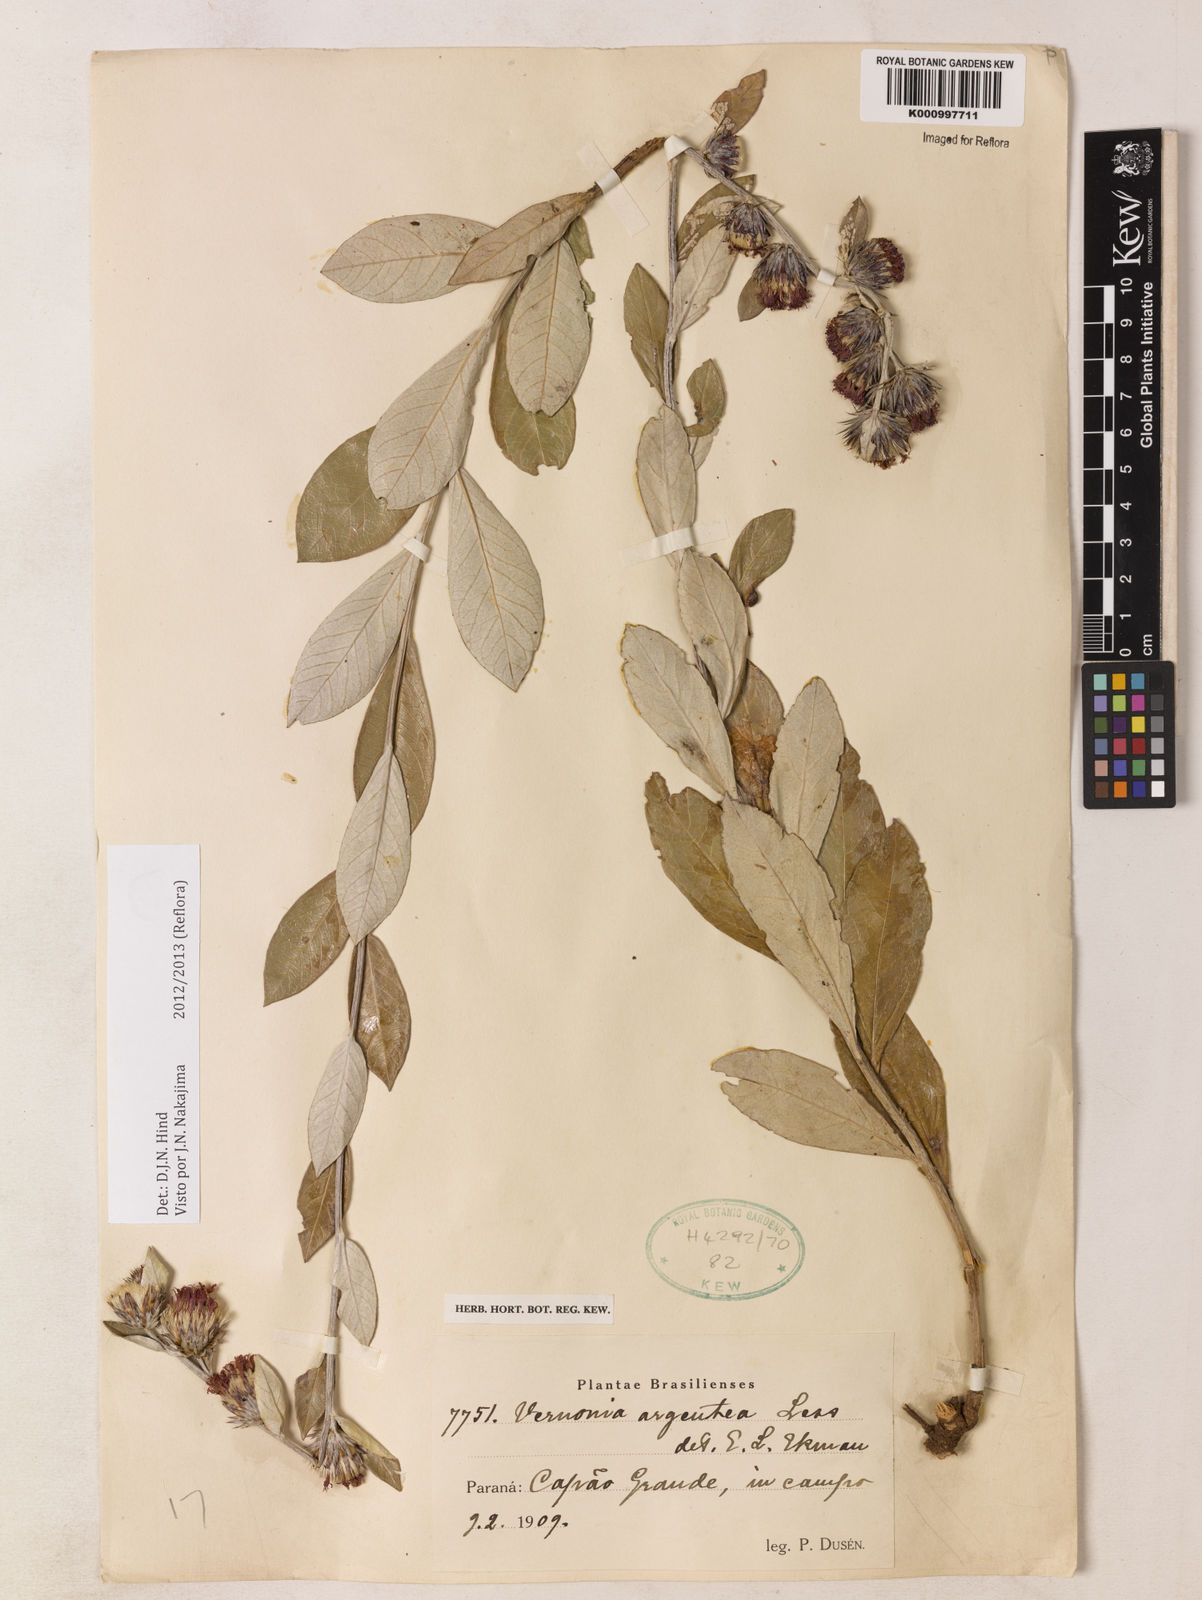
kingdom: Plantae
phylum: Tracheophyta
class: Magnoliopsida
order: Asterales
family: Asteraceae
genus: Lessingianthus
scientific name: Lessingianthus argenteus
